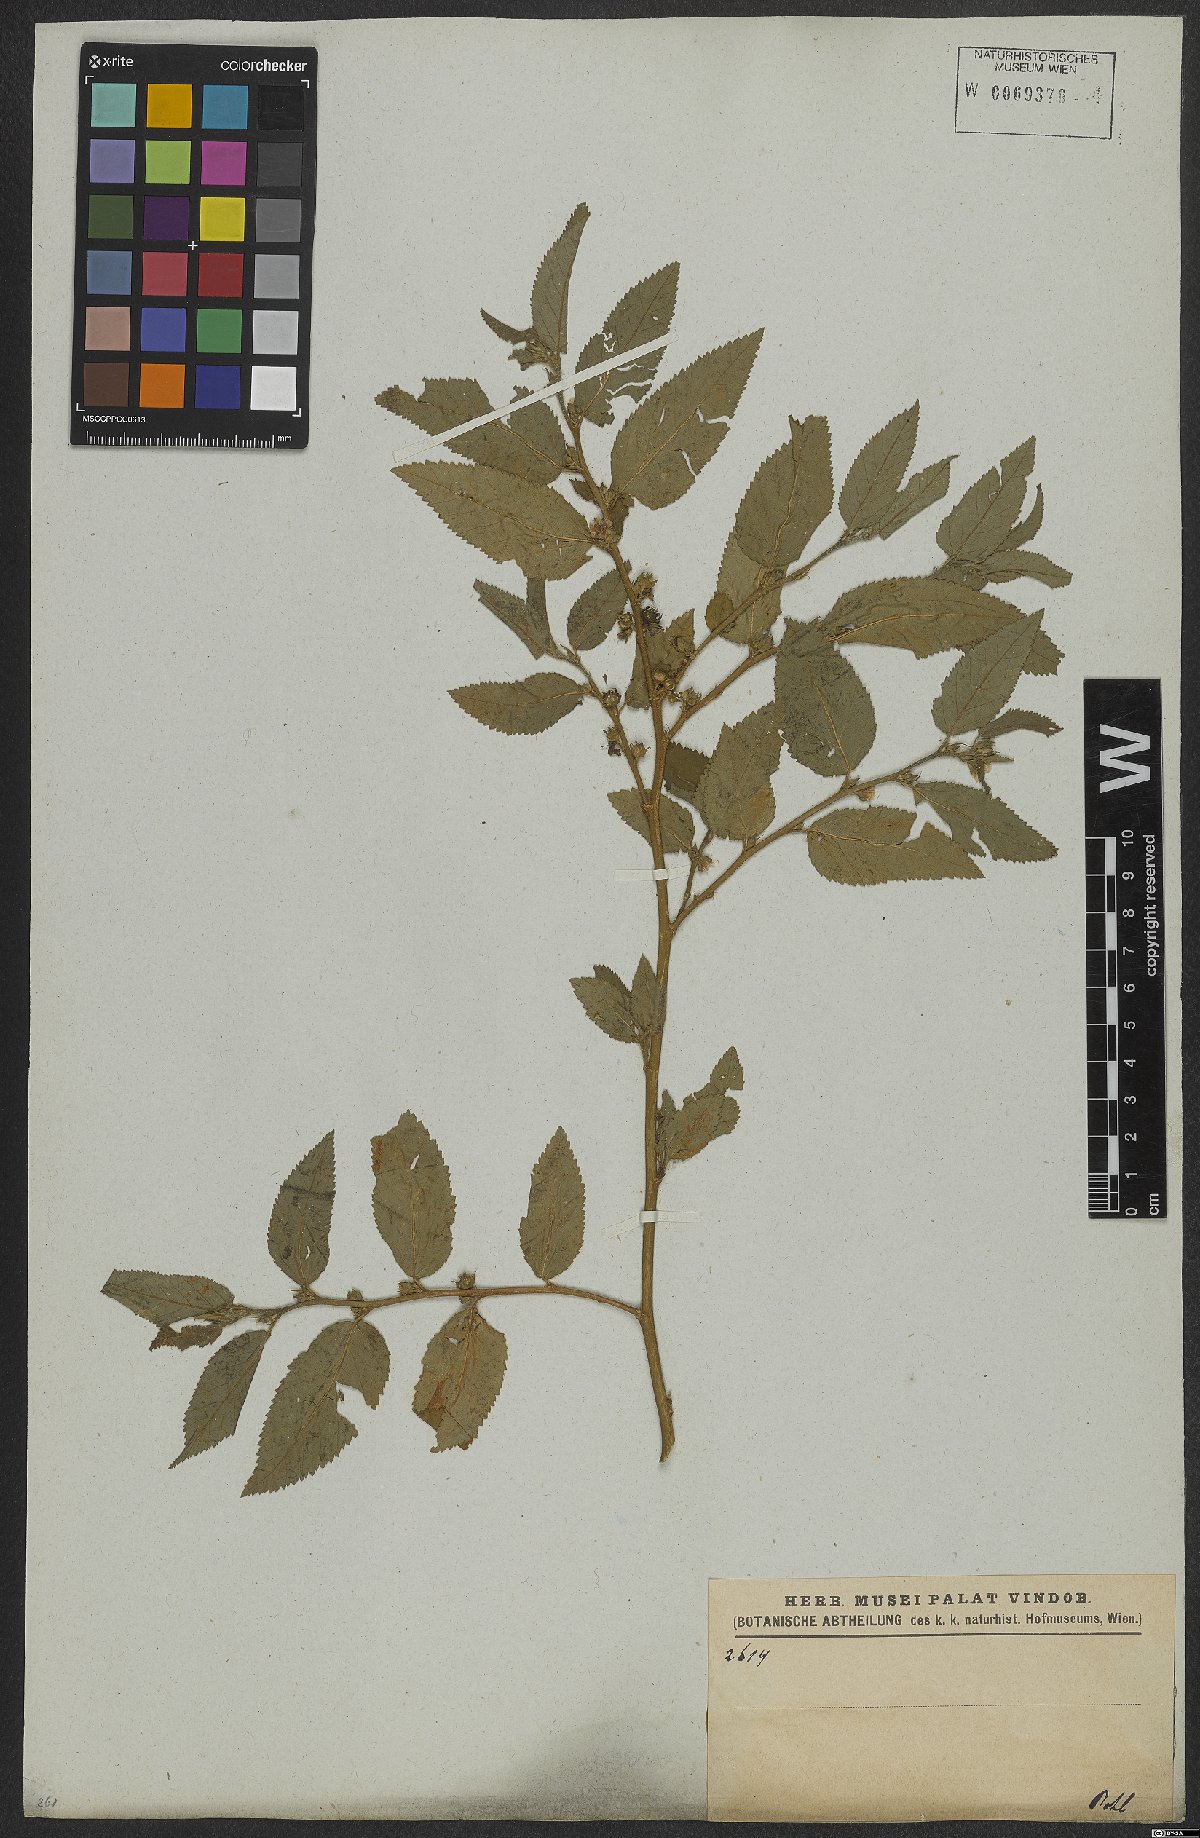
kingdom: Plantae
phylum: Tracheophyta
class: Magnoliopsida
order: Malvales
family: Malvaceae
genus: Sida
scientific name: Sida
